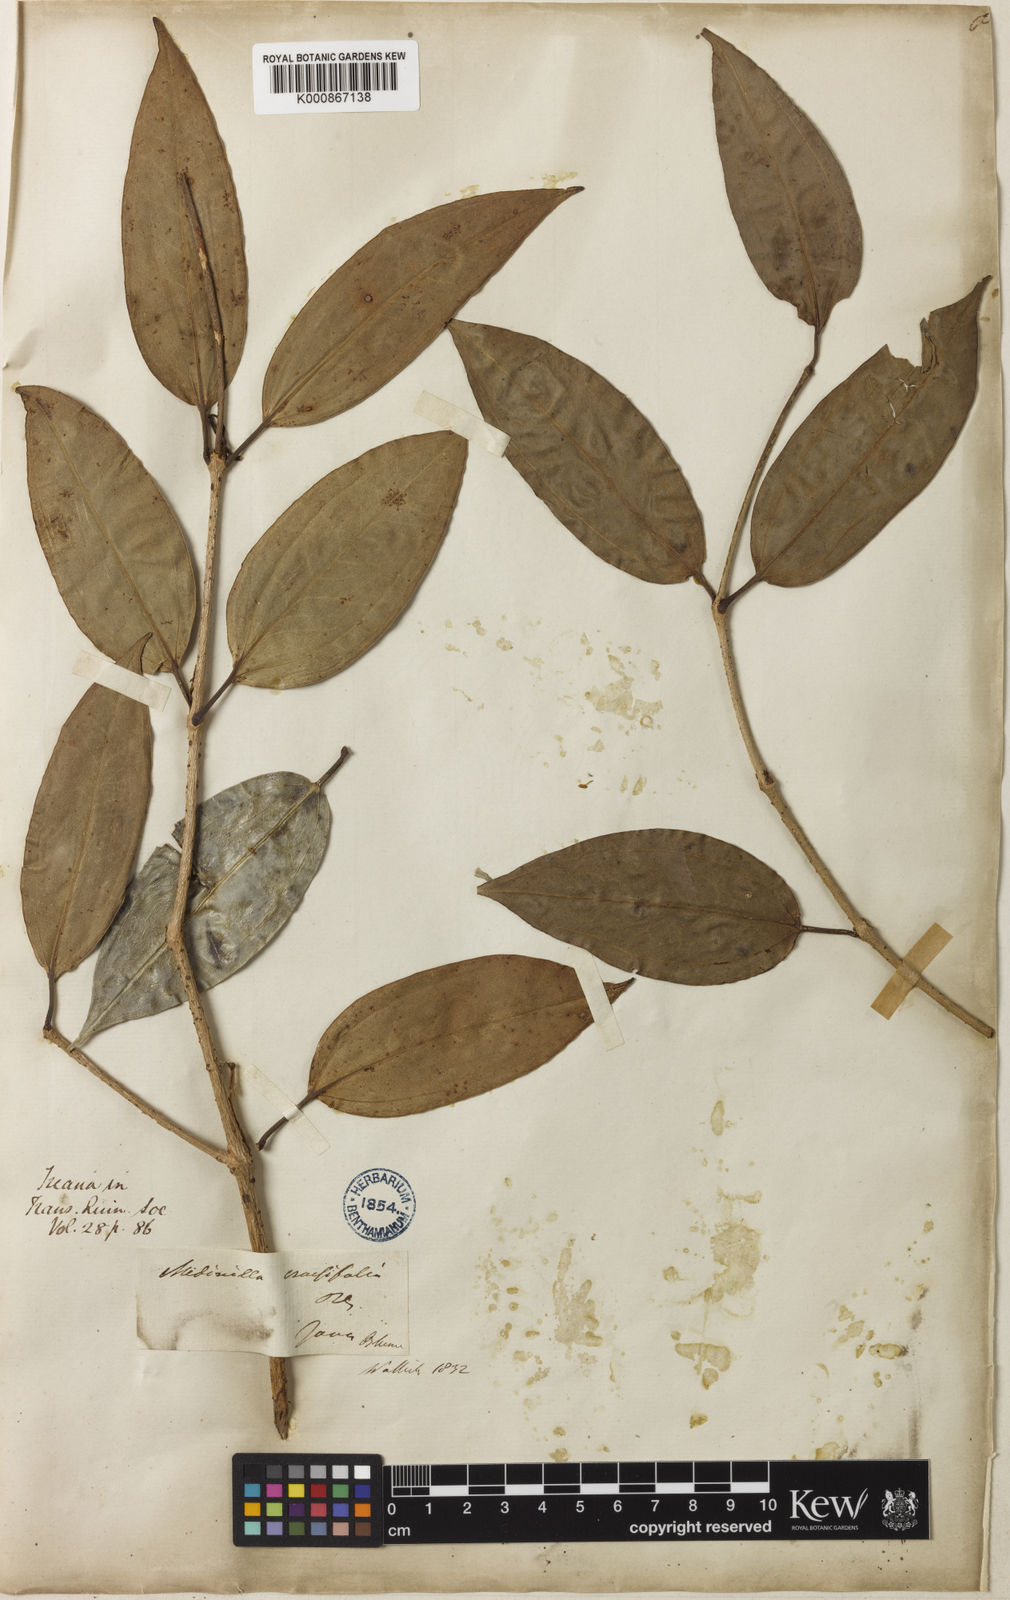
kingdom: Plantae
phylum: Tracheophyta
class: Magnoliopsida
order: Myrtales
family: Melastomataceae
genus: Medinilla
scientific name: Medinilla crassifolia
